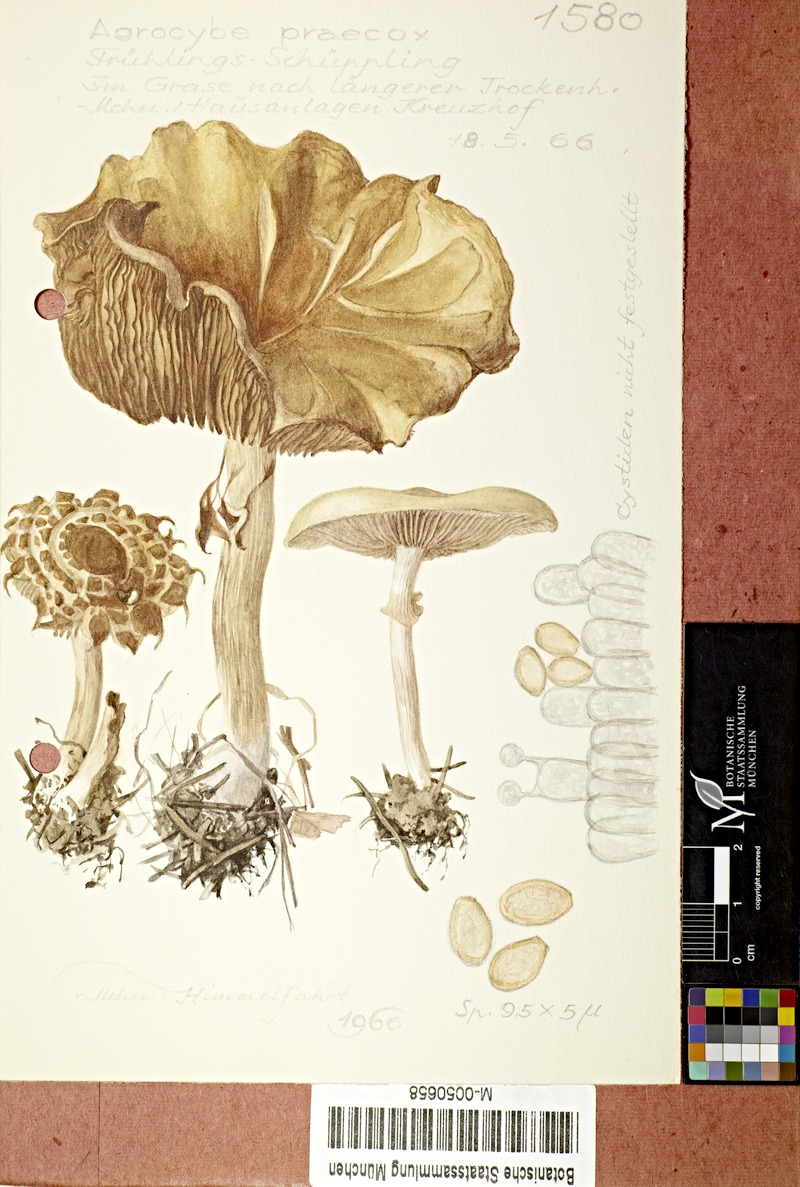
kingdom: Fungi
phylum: Basidiomycota
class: Agaricomycetes
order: Agaricales
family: Strophariaceae
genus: Agrocybe
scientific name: Agrocybe praecox
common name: Spring fieldcap
